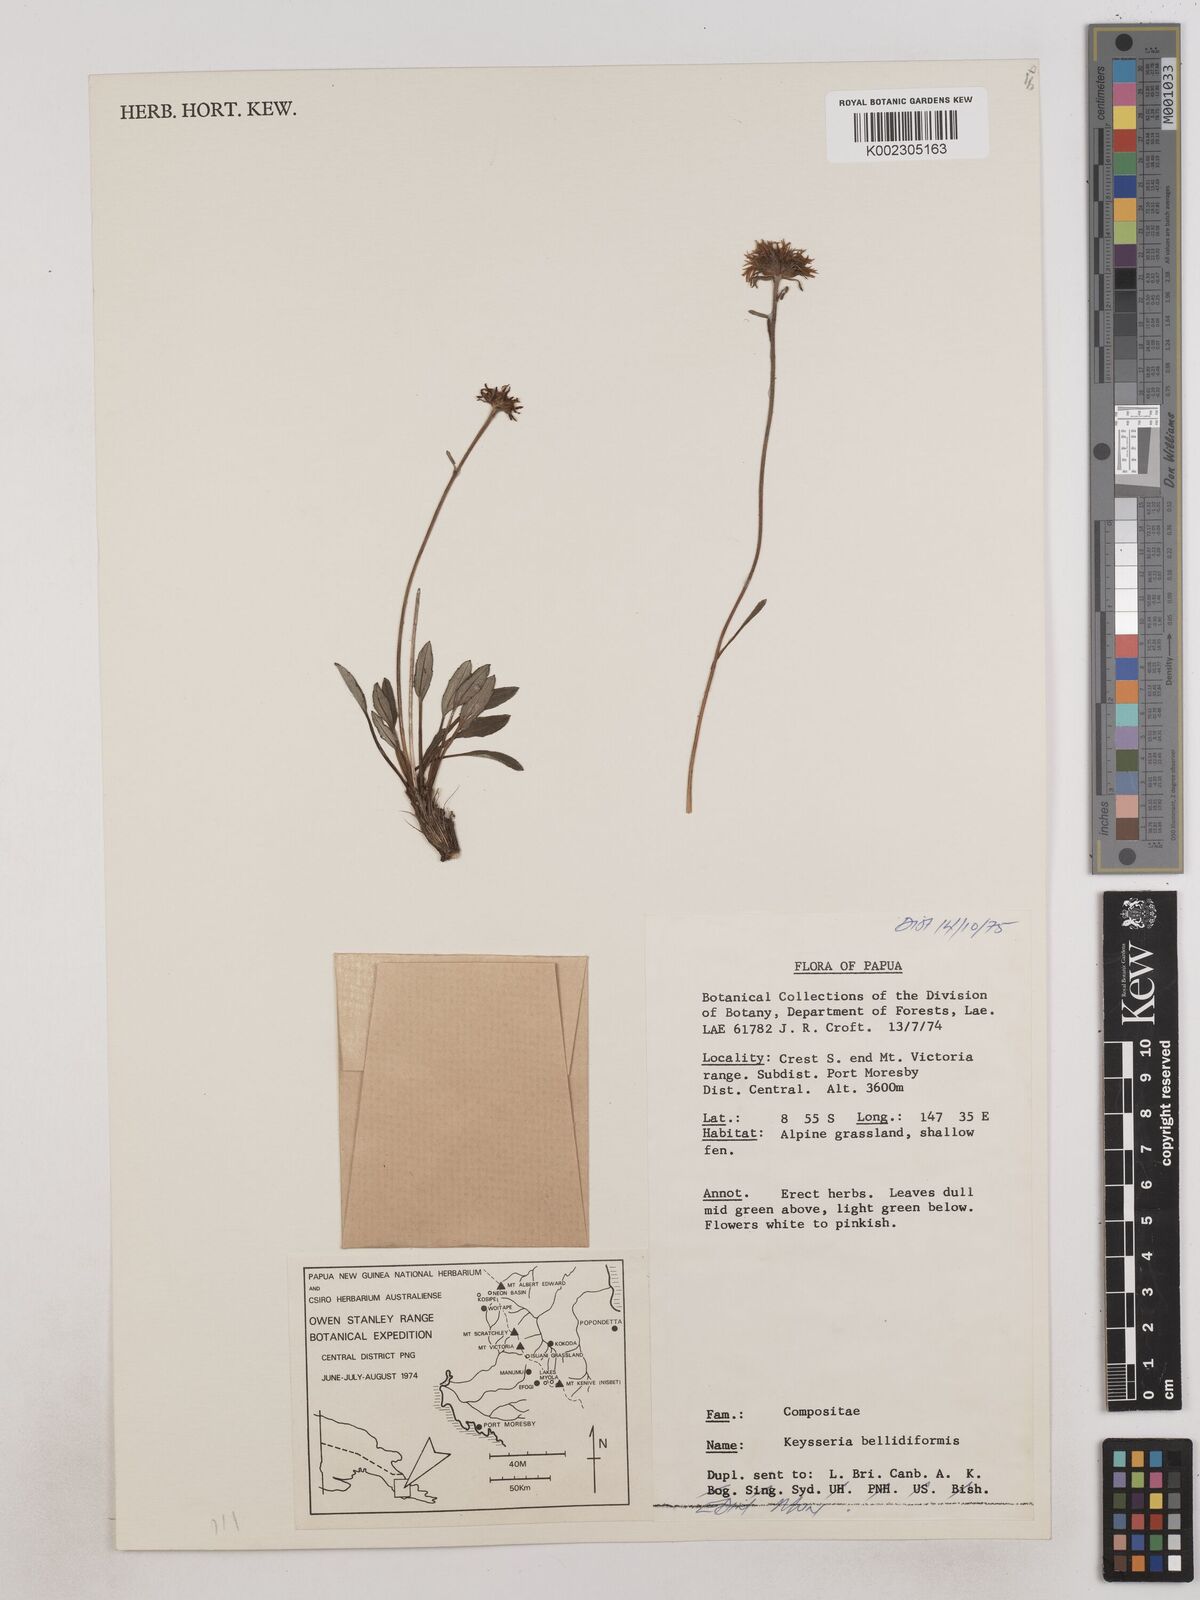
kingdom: Plantae
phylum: Tracheophyta
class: Magnoliopsida
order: Asterales
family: Asteraceae
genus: Keysseria
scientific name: Keysseria bellidiformis
